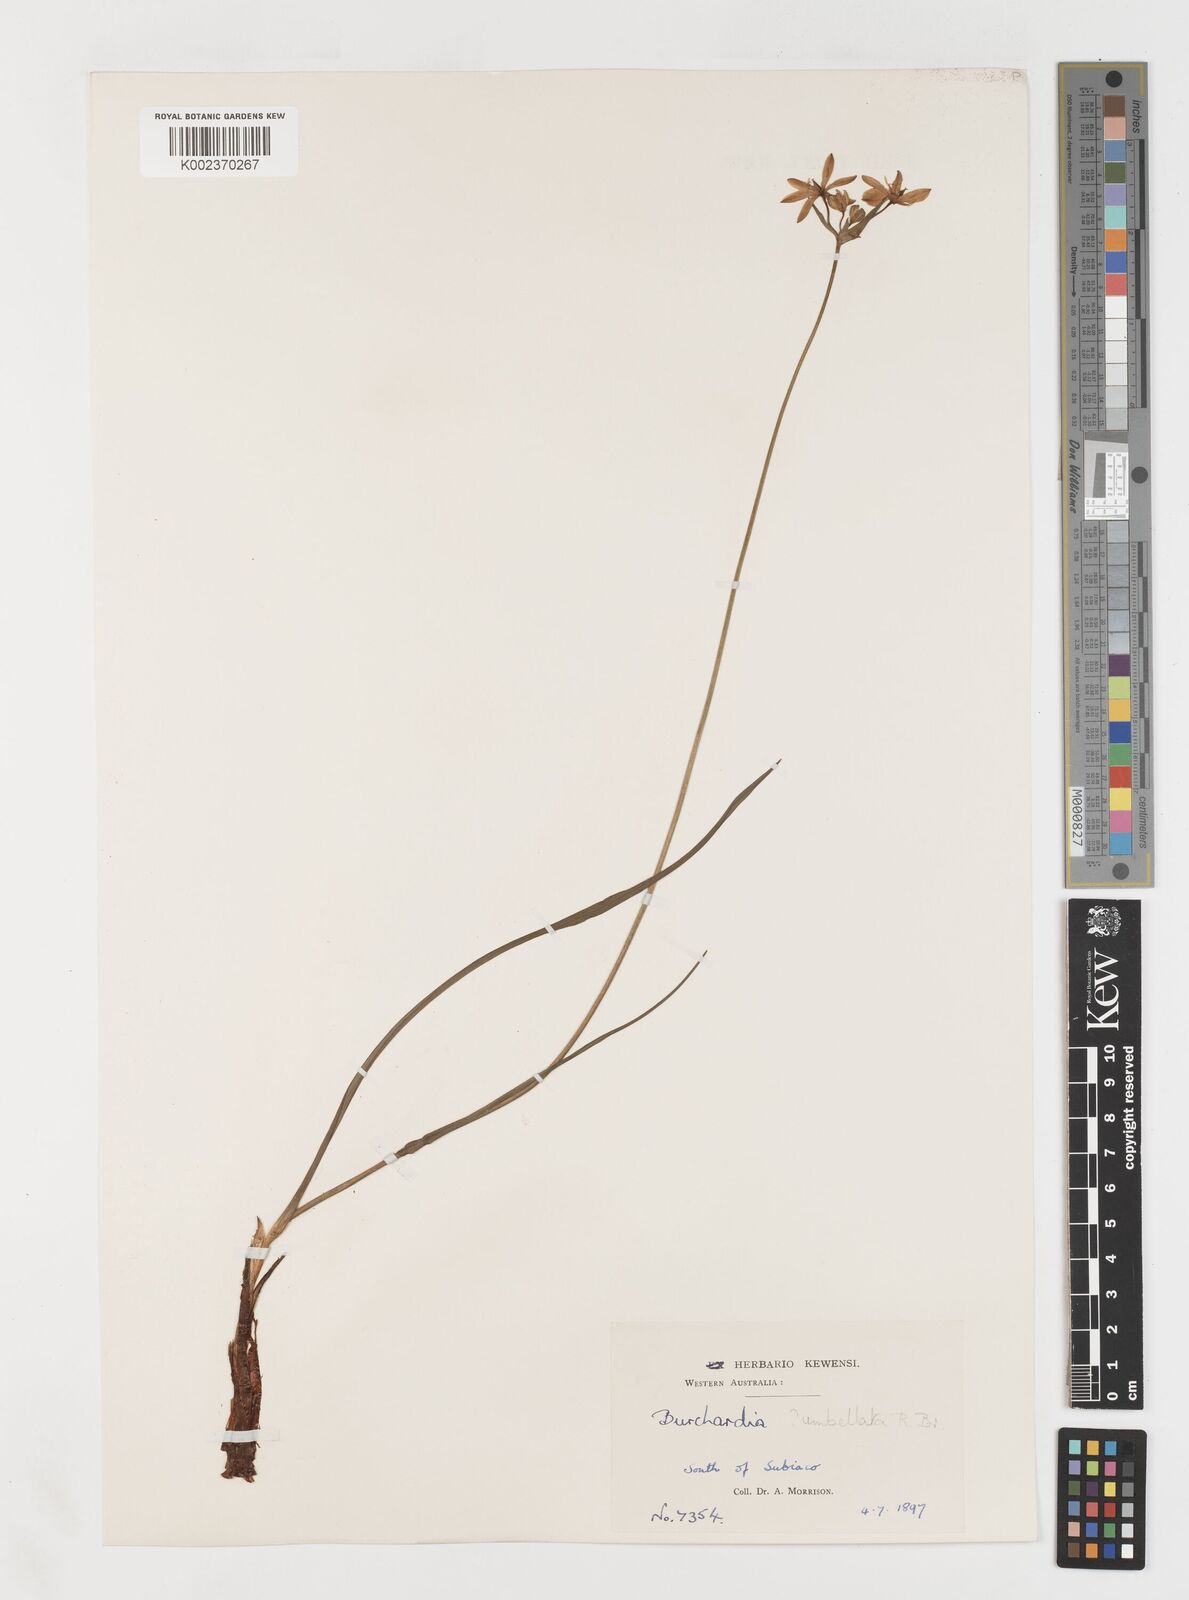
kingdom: Plantae
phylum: Tracheophyta
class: Liliopsida
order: Liliales
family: Colchicaceae
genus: Burchardia
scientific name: Burchardia umbellata
